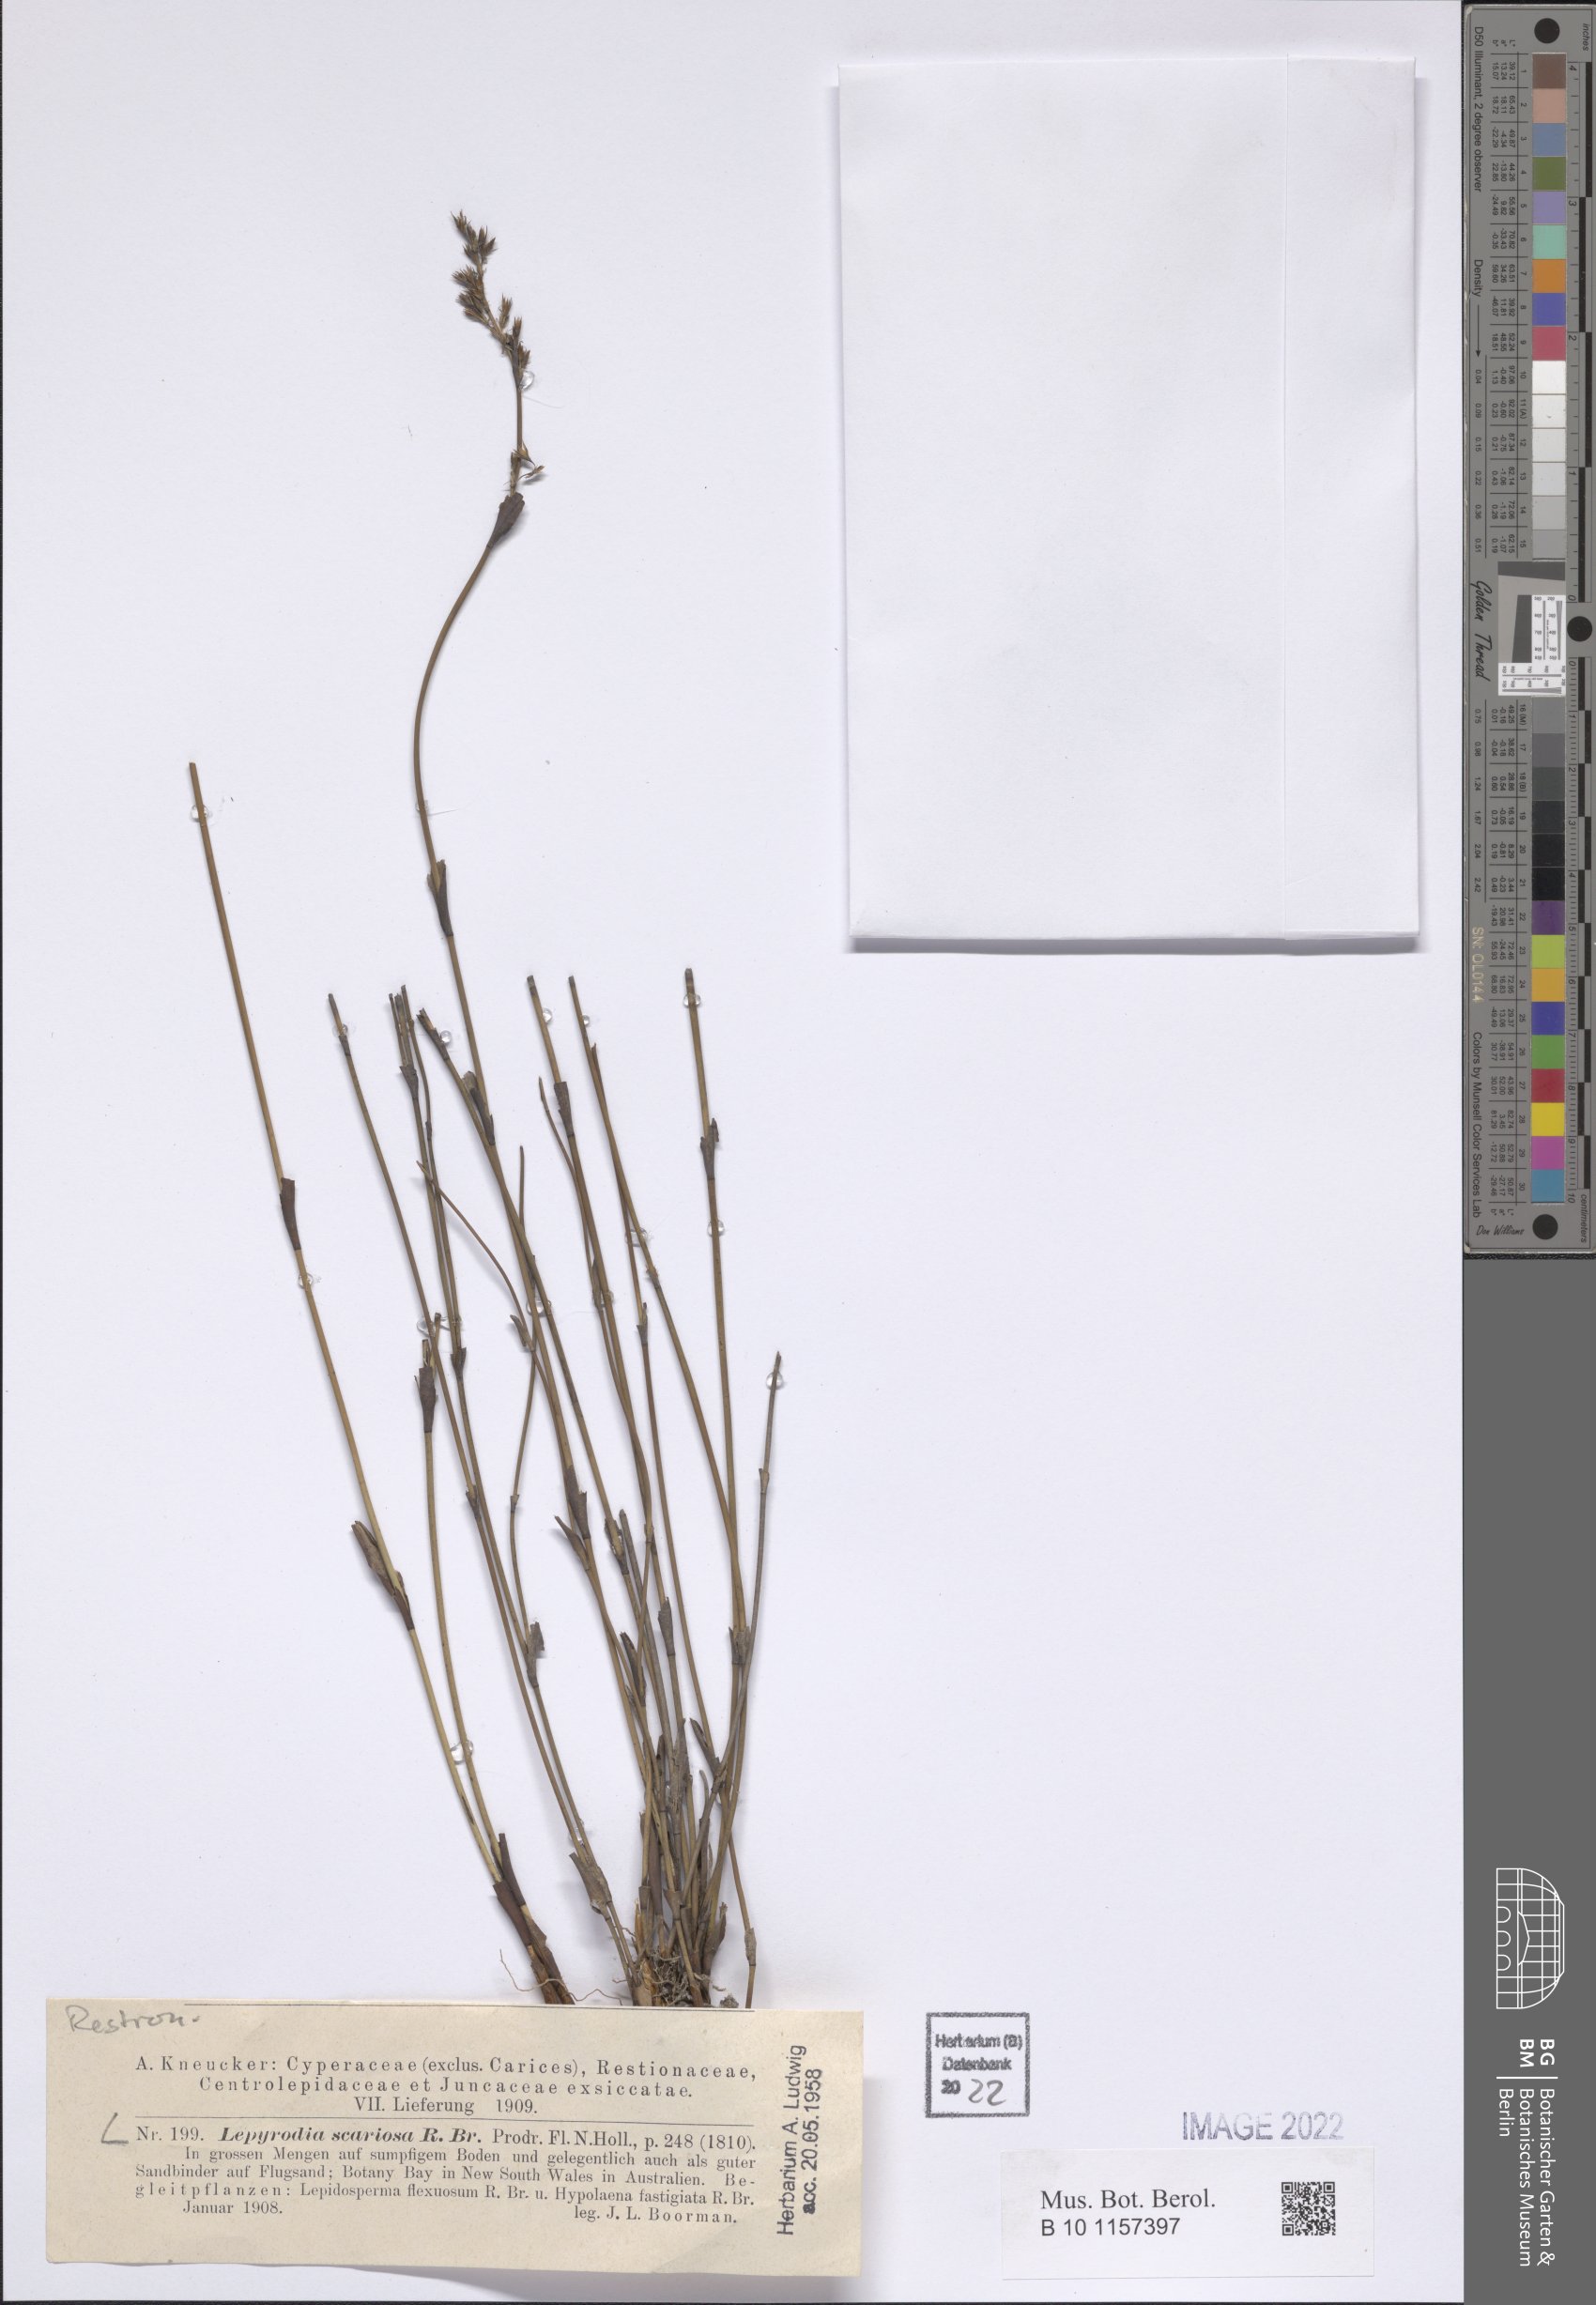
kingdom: Plantae
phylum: Tracheophyta
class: Liliopsida
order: Poales
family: Restionaceae
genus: Lepyrodia
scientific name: Lepyrodia scariosa
